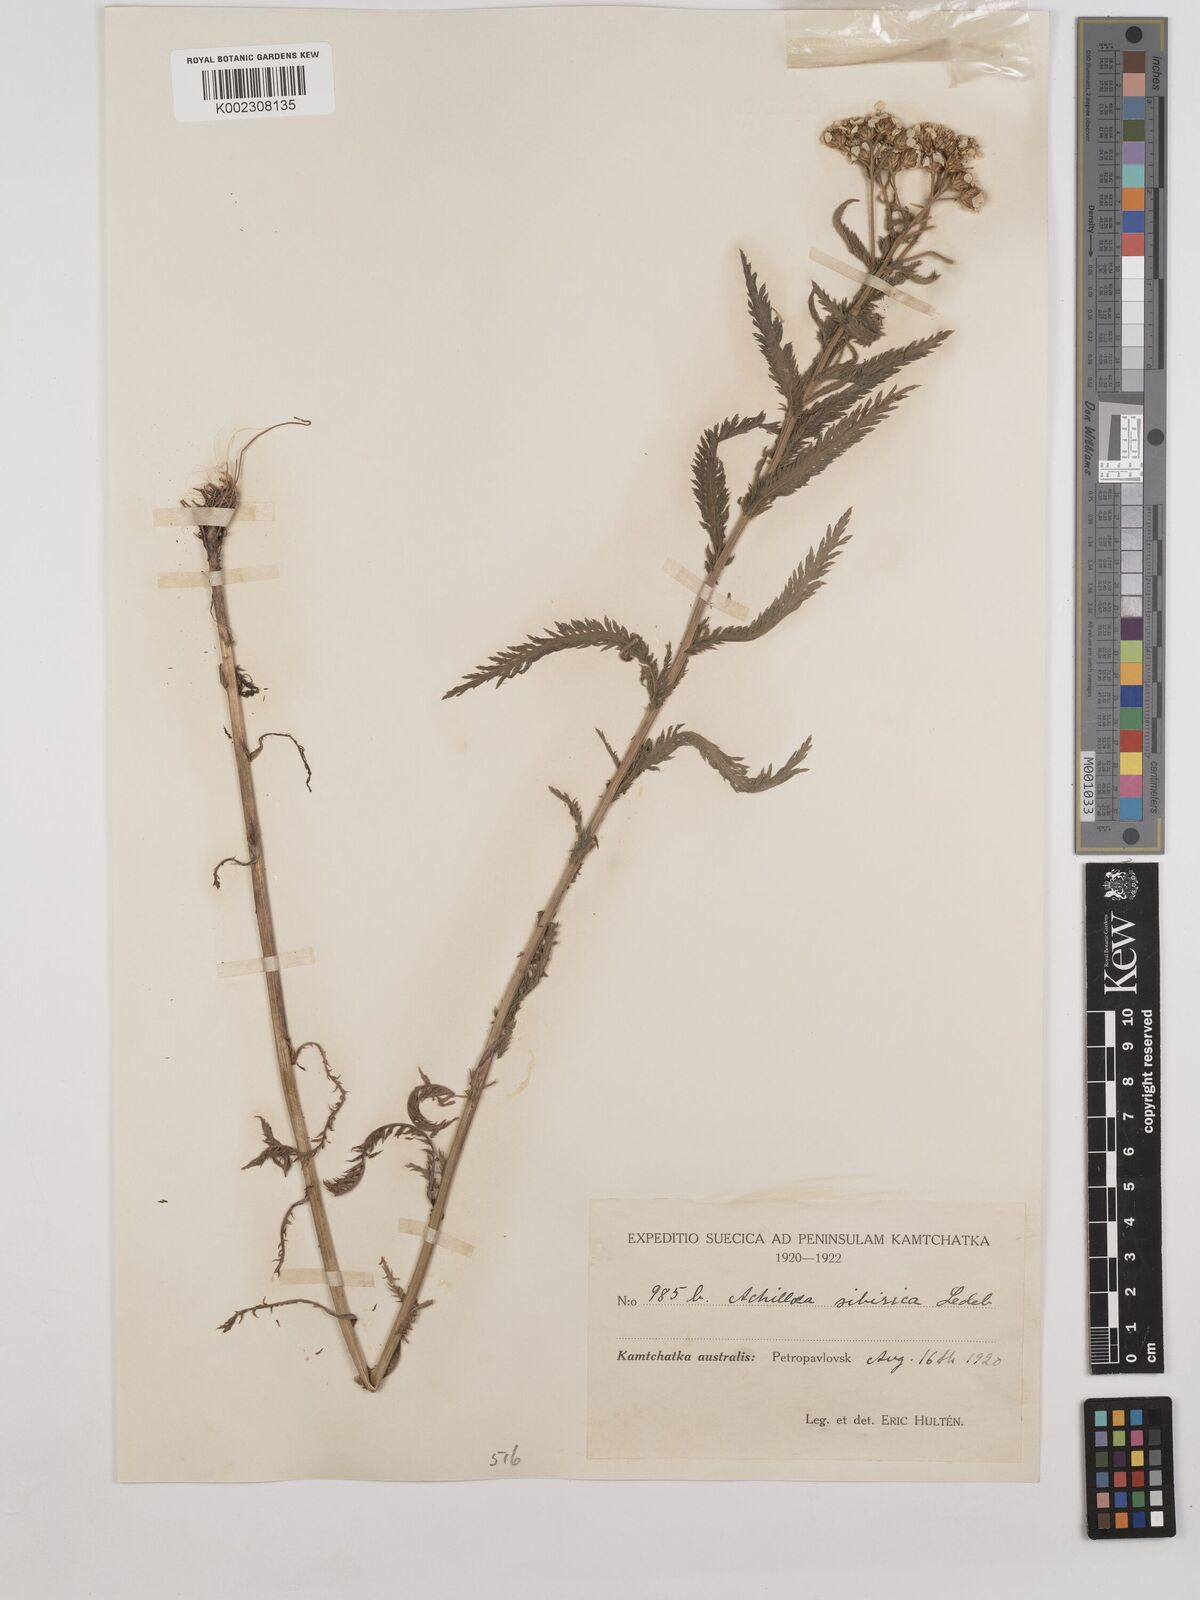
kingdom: Plantae
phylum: Tracheophyta
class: Magnoliopsida
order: Asterales
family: Asteraceae
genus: Achillea
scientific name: Achillea alpina
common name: Siberian yarrow
